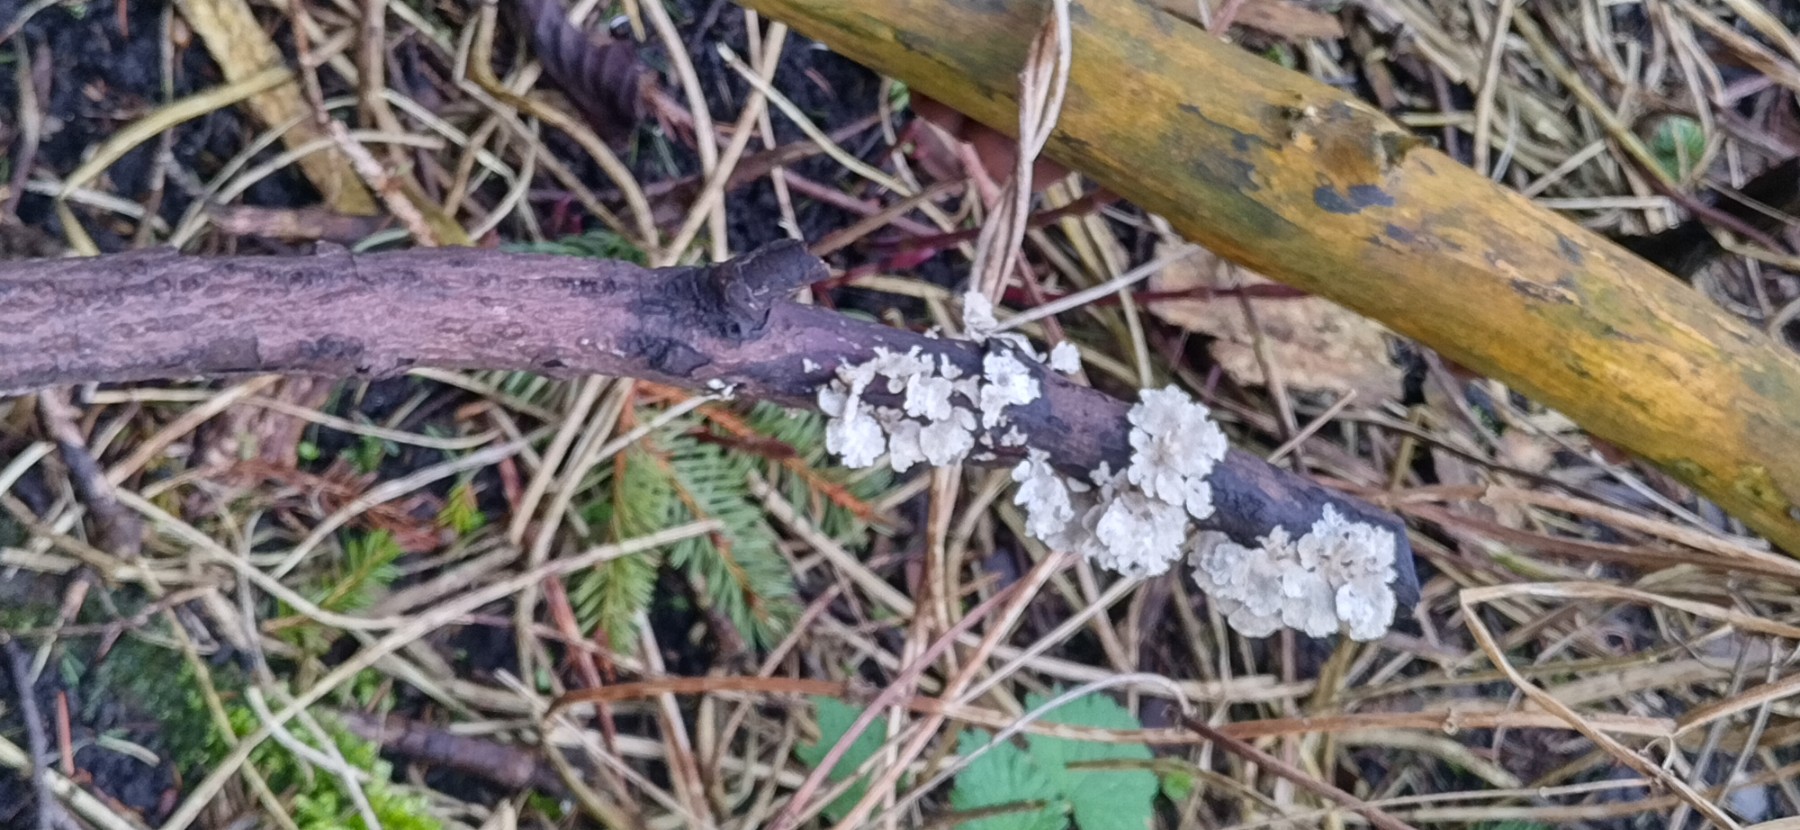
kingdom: Fungi
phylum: Basidiomycota
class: Agaricomycetes
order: Amylocorticiales
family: Amylocorticiaceae
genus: Plicaturopsis
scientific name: Plicaturopsis crispa
